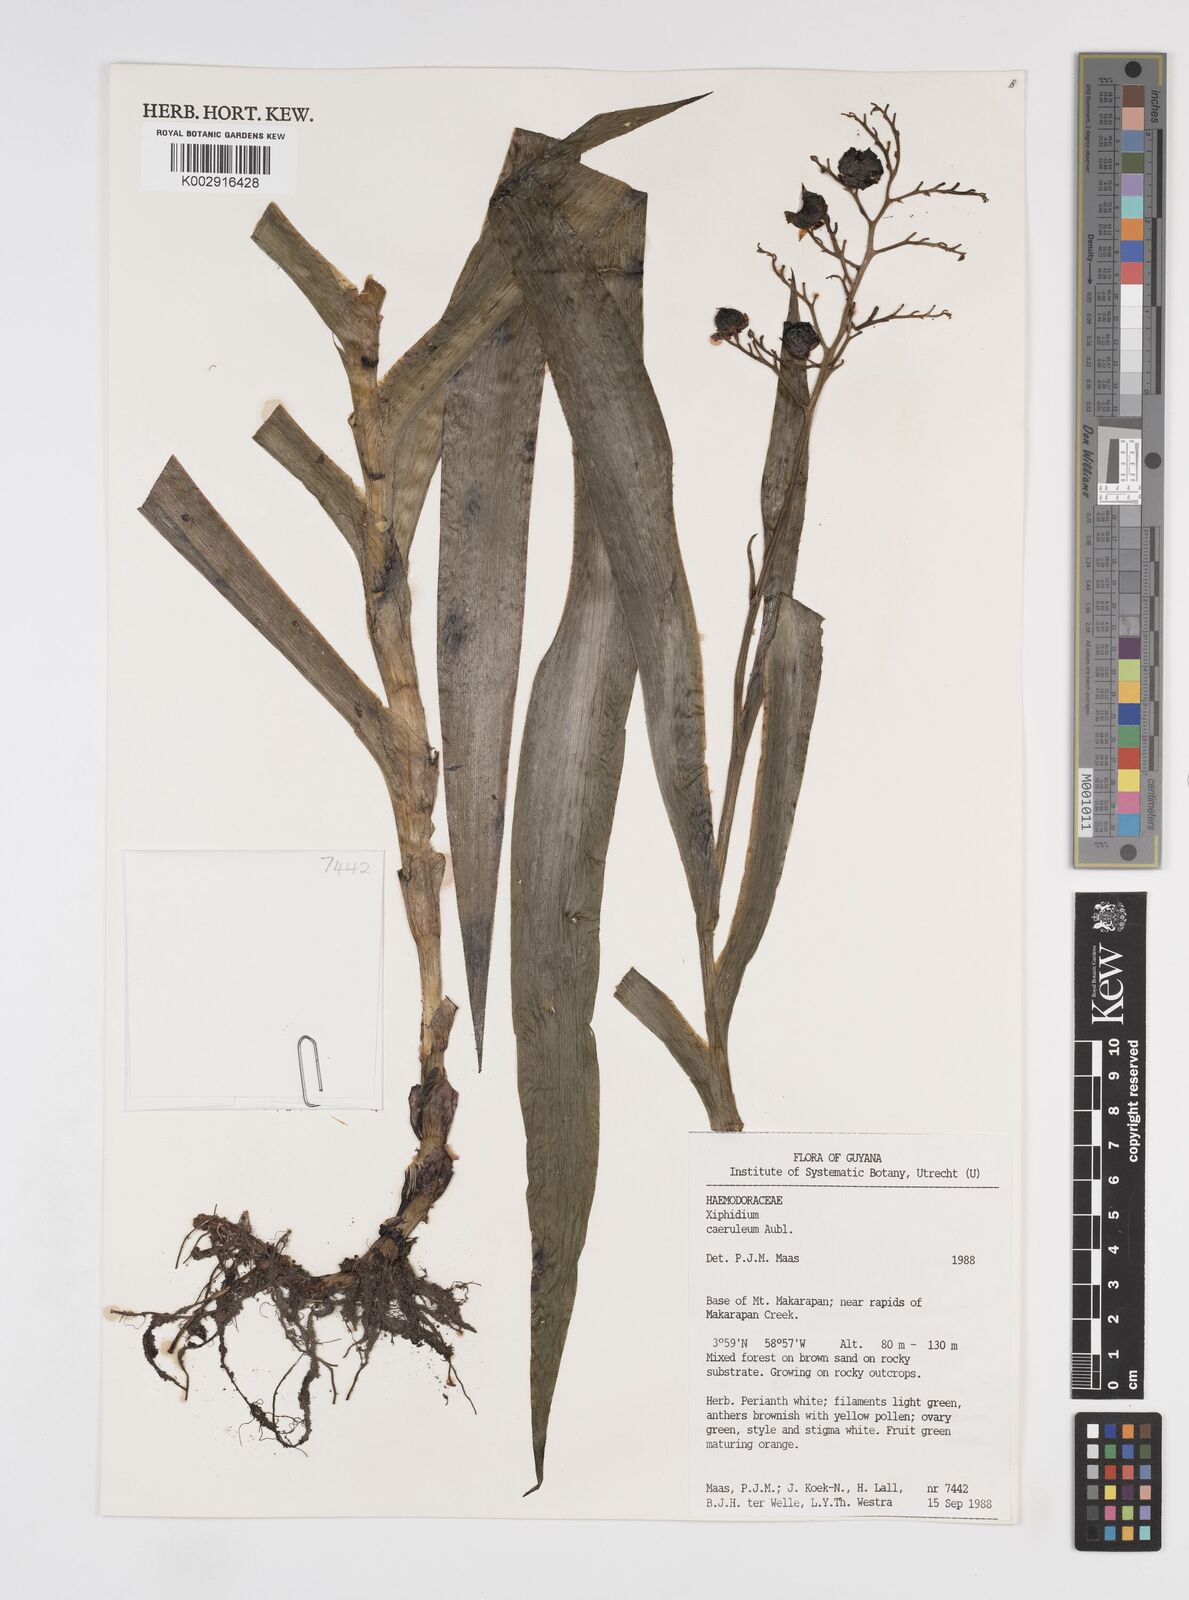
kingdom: Plantae
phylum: Tracheophyta
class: Liliopsida
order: Commelinales
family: Haemodoraceae
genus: Xiphidium
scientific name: Xiphidium caeruleum
